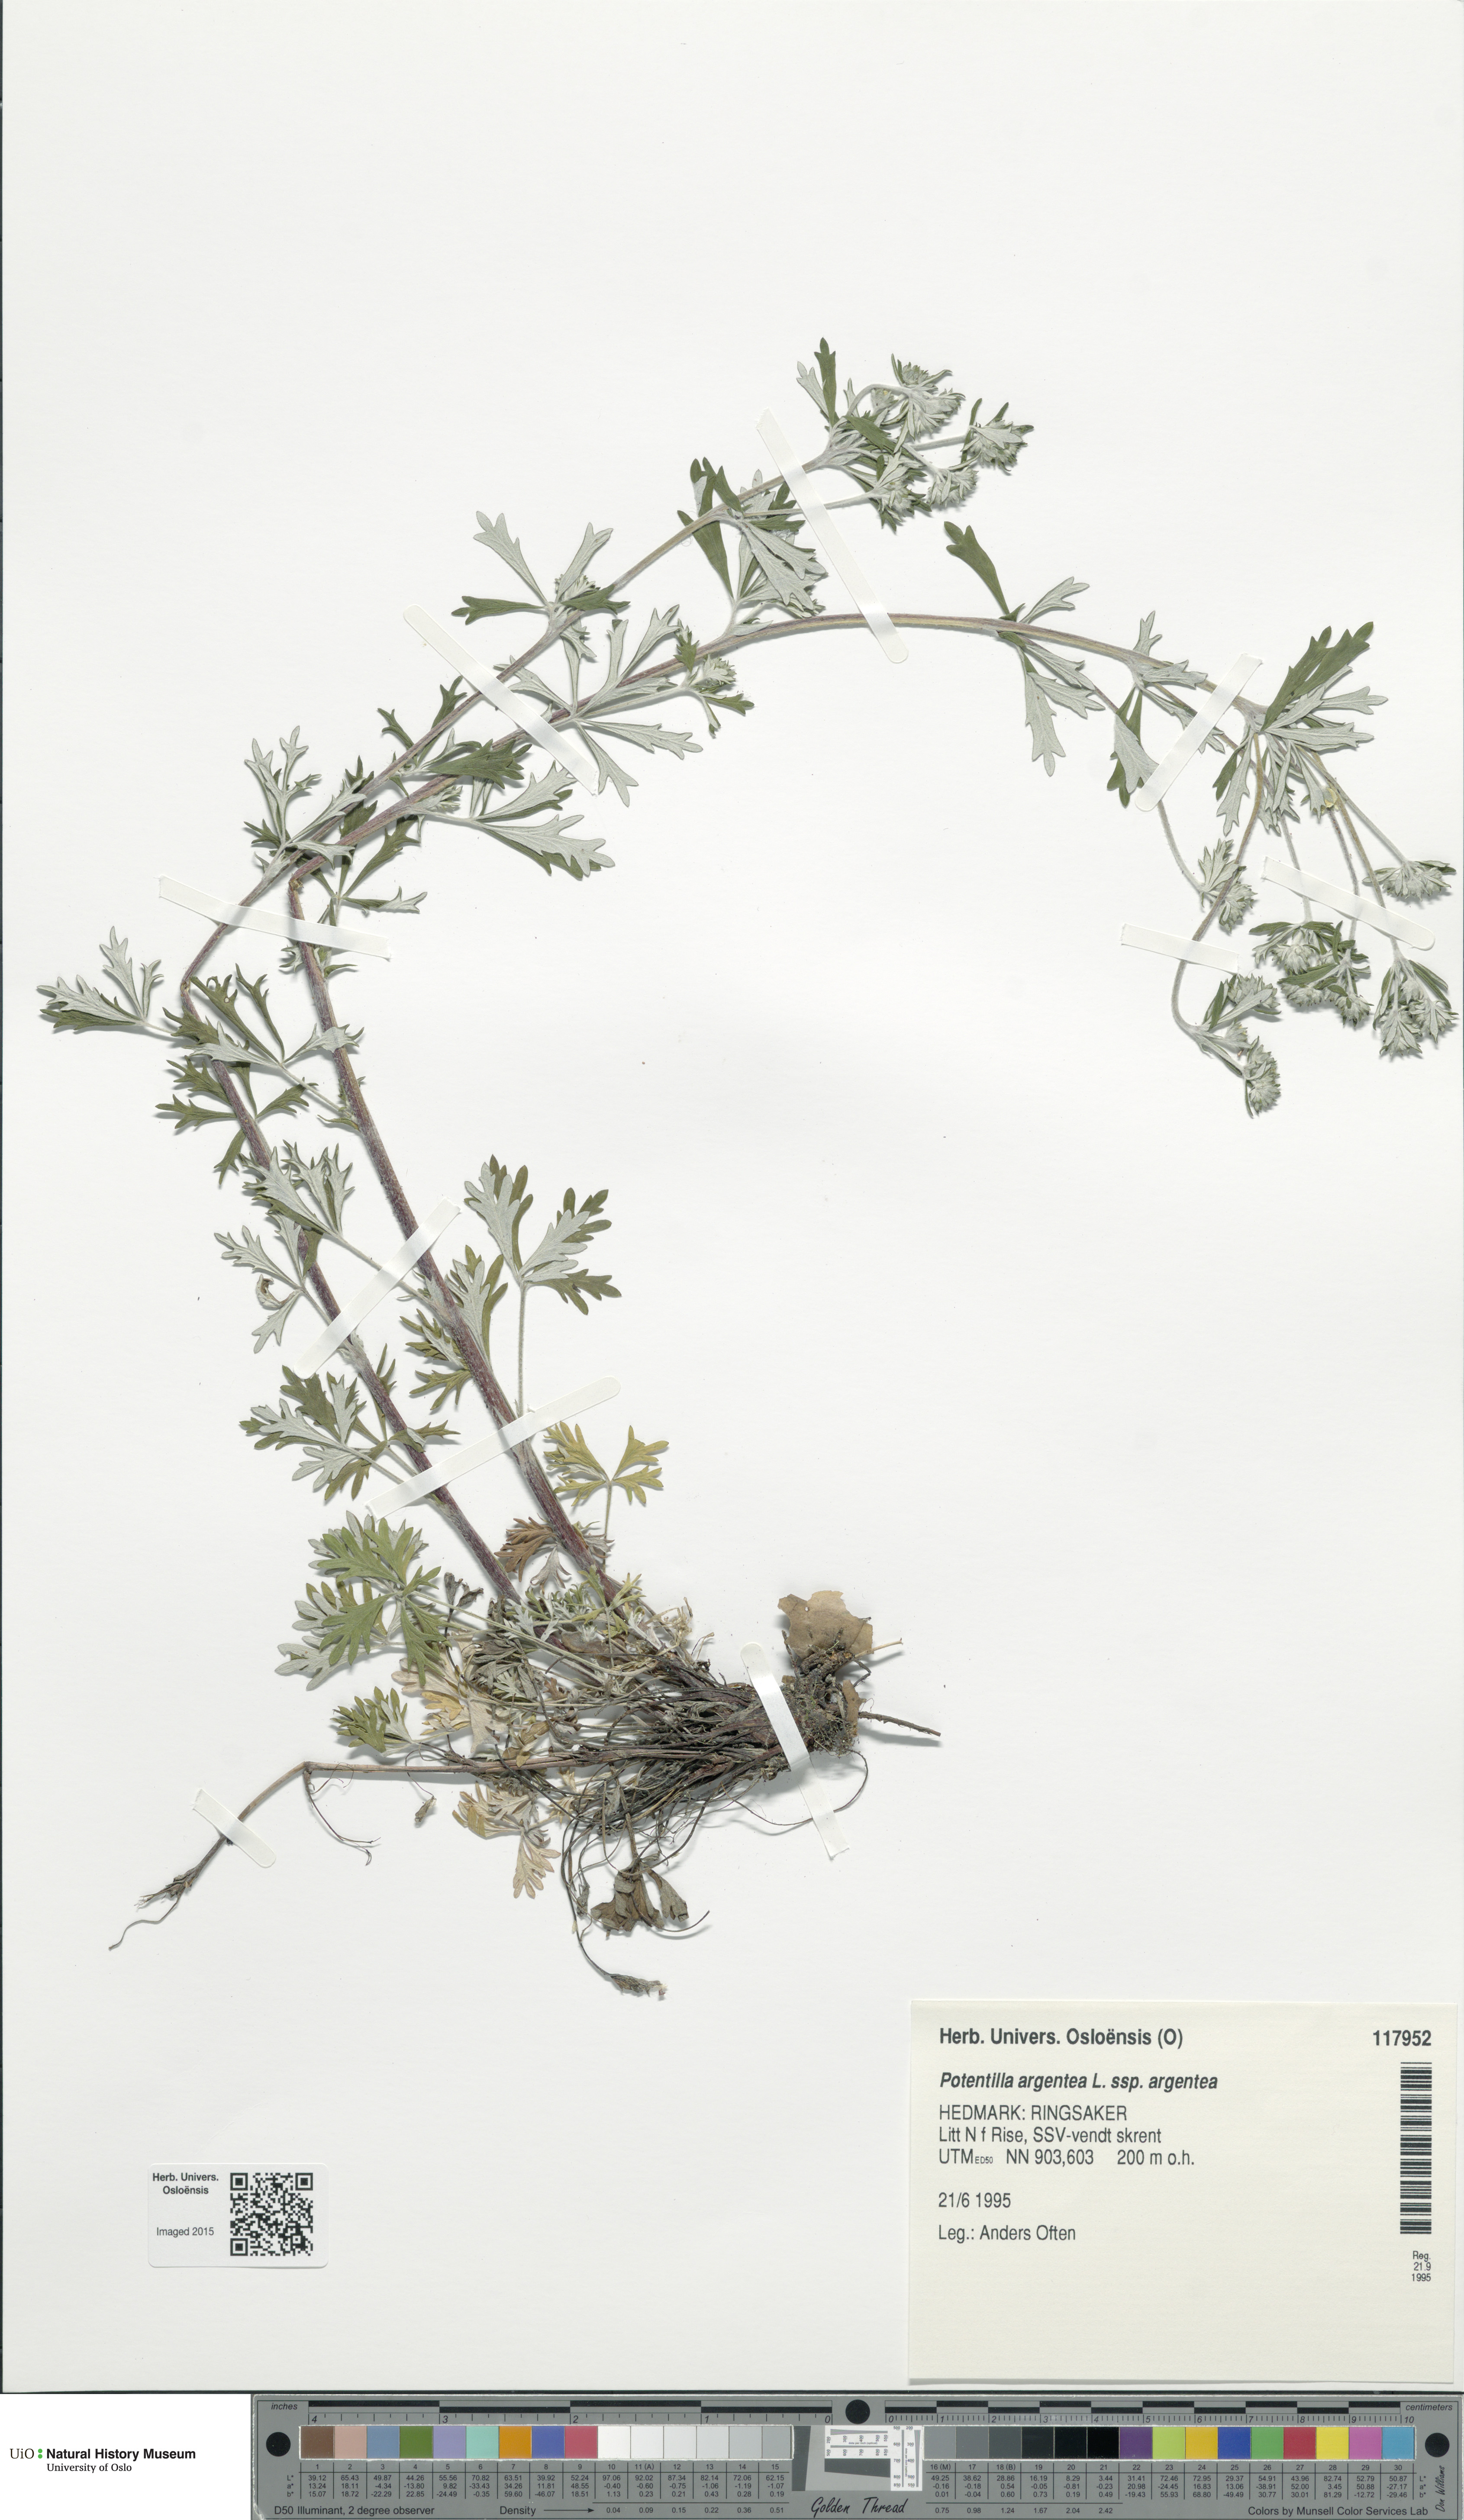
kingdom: Plantae
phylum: Tracheophyta
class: Magnoliopsida
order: Rosales
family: Rosaceae
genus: Potentilla
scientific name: Potentilla argentea
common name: Hoary cinquefoil
